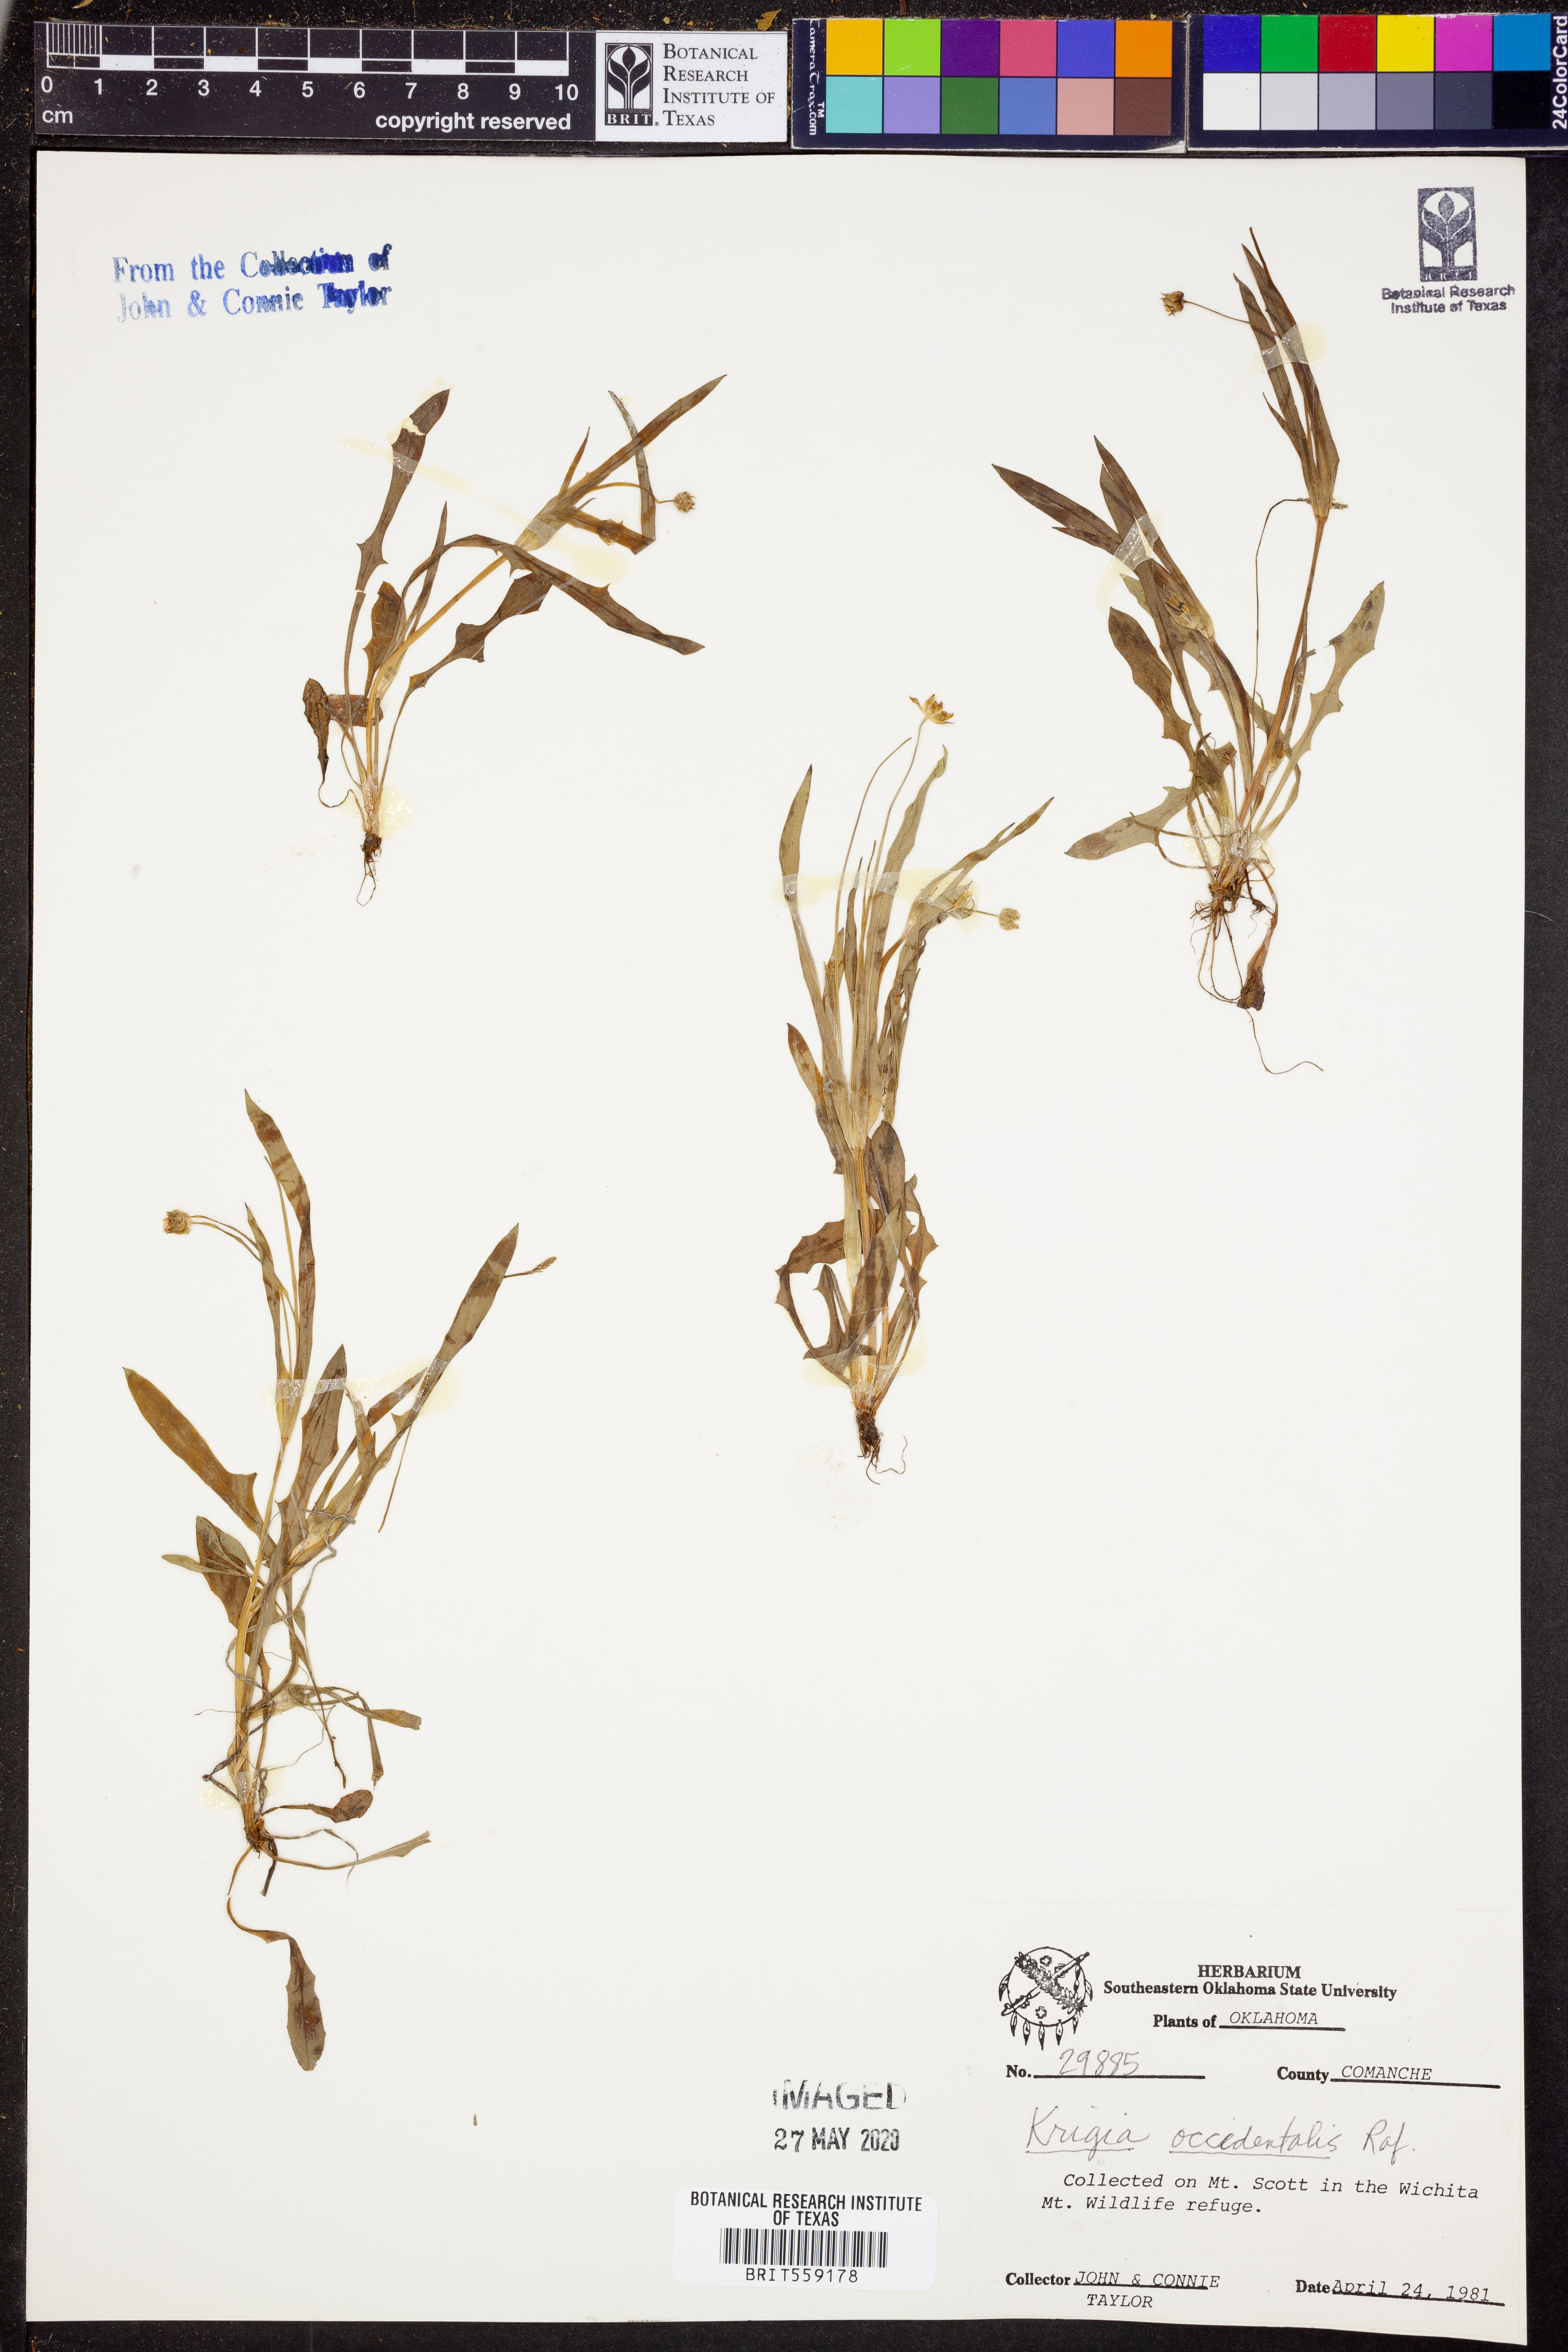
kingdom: Plantae
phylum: Tracheophyta
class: Magnoliopsida
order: Asterales
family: Asteraceae
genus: Krigia
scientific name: Krigia occidentalis
